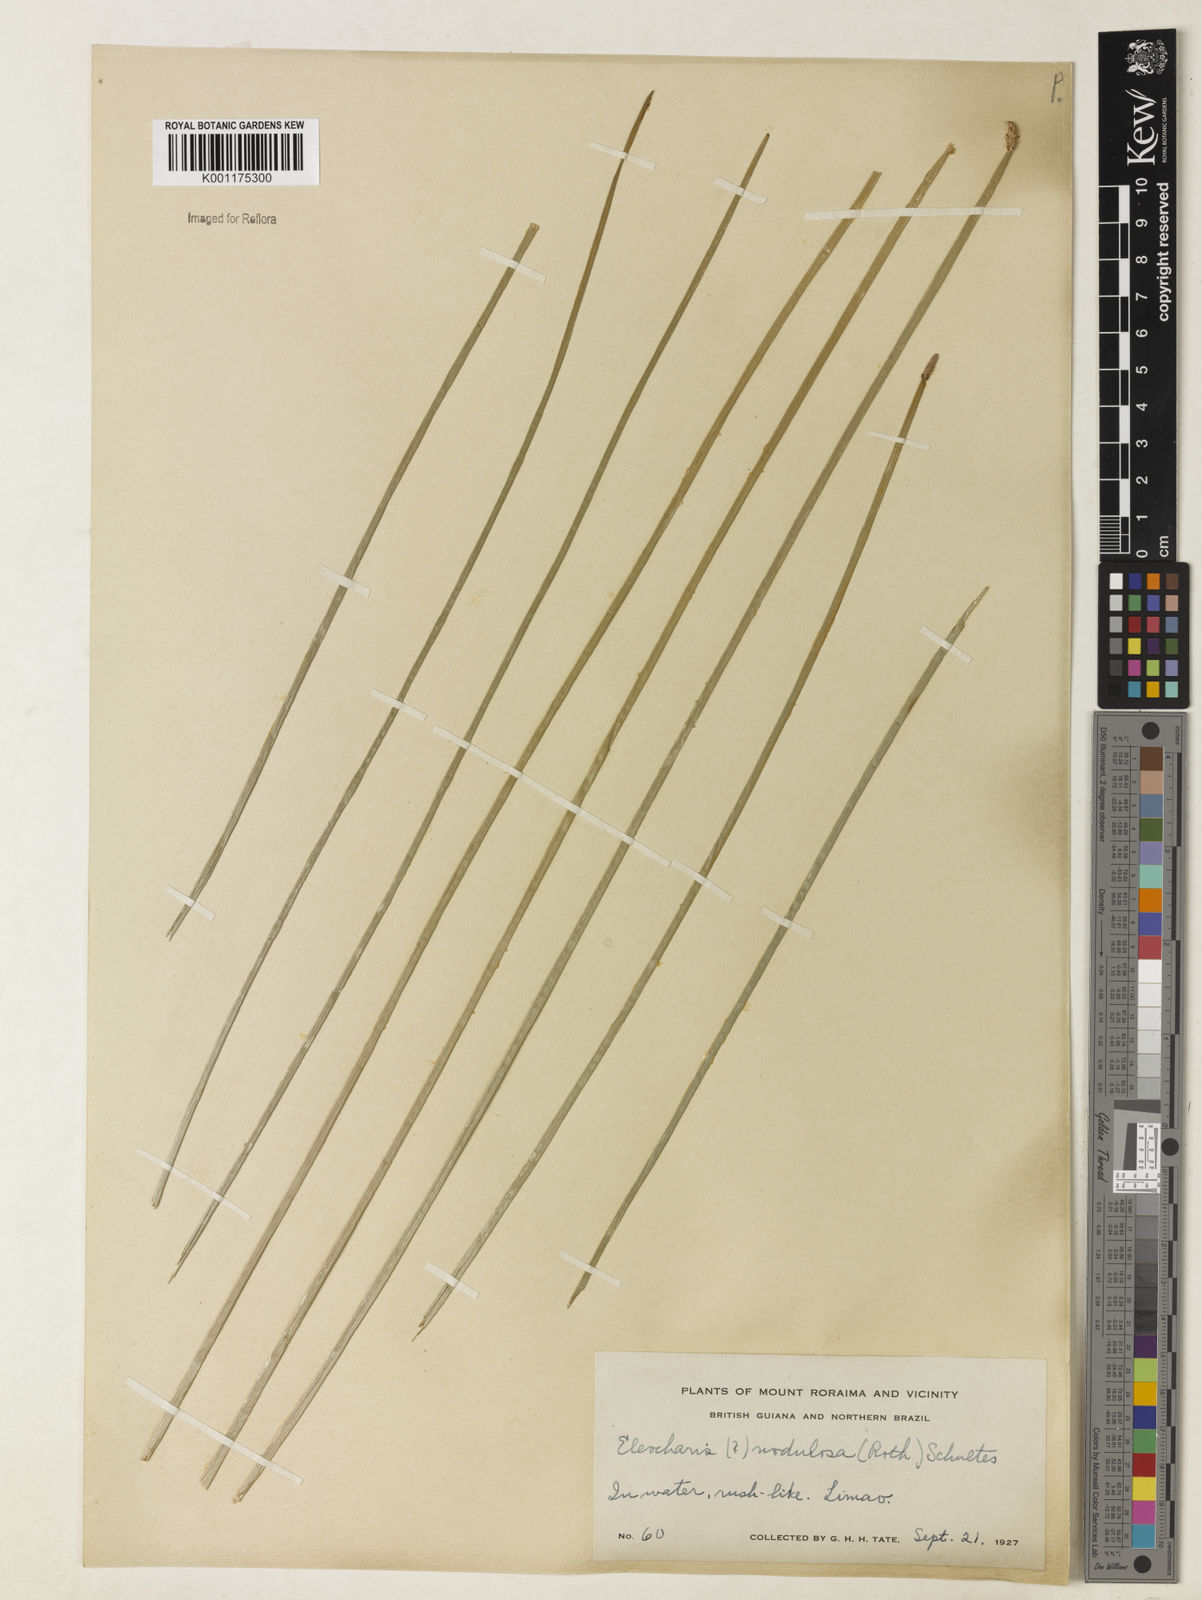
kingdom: Plantae
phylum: Tracheophyta
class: Liliopsida
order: Poales
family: Cyperaceae
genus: Eleocharis
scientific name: Eleocharis montana
